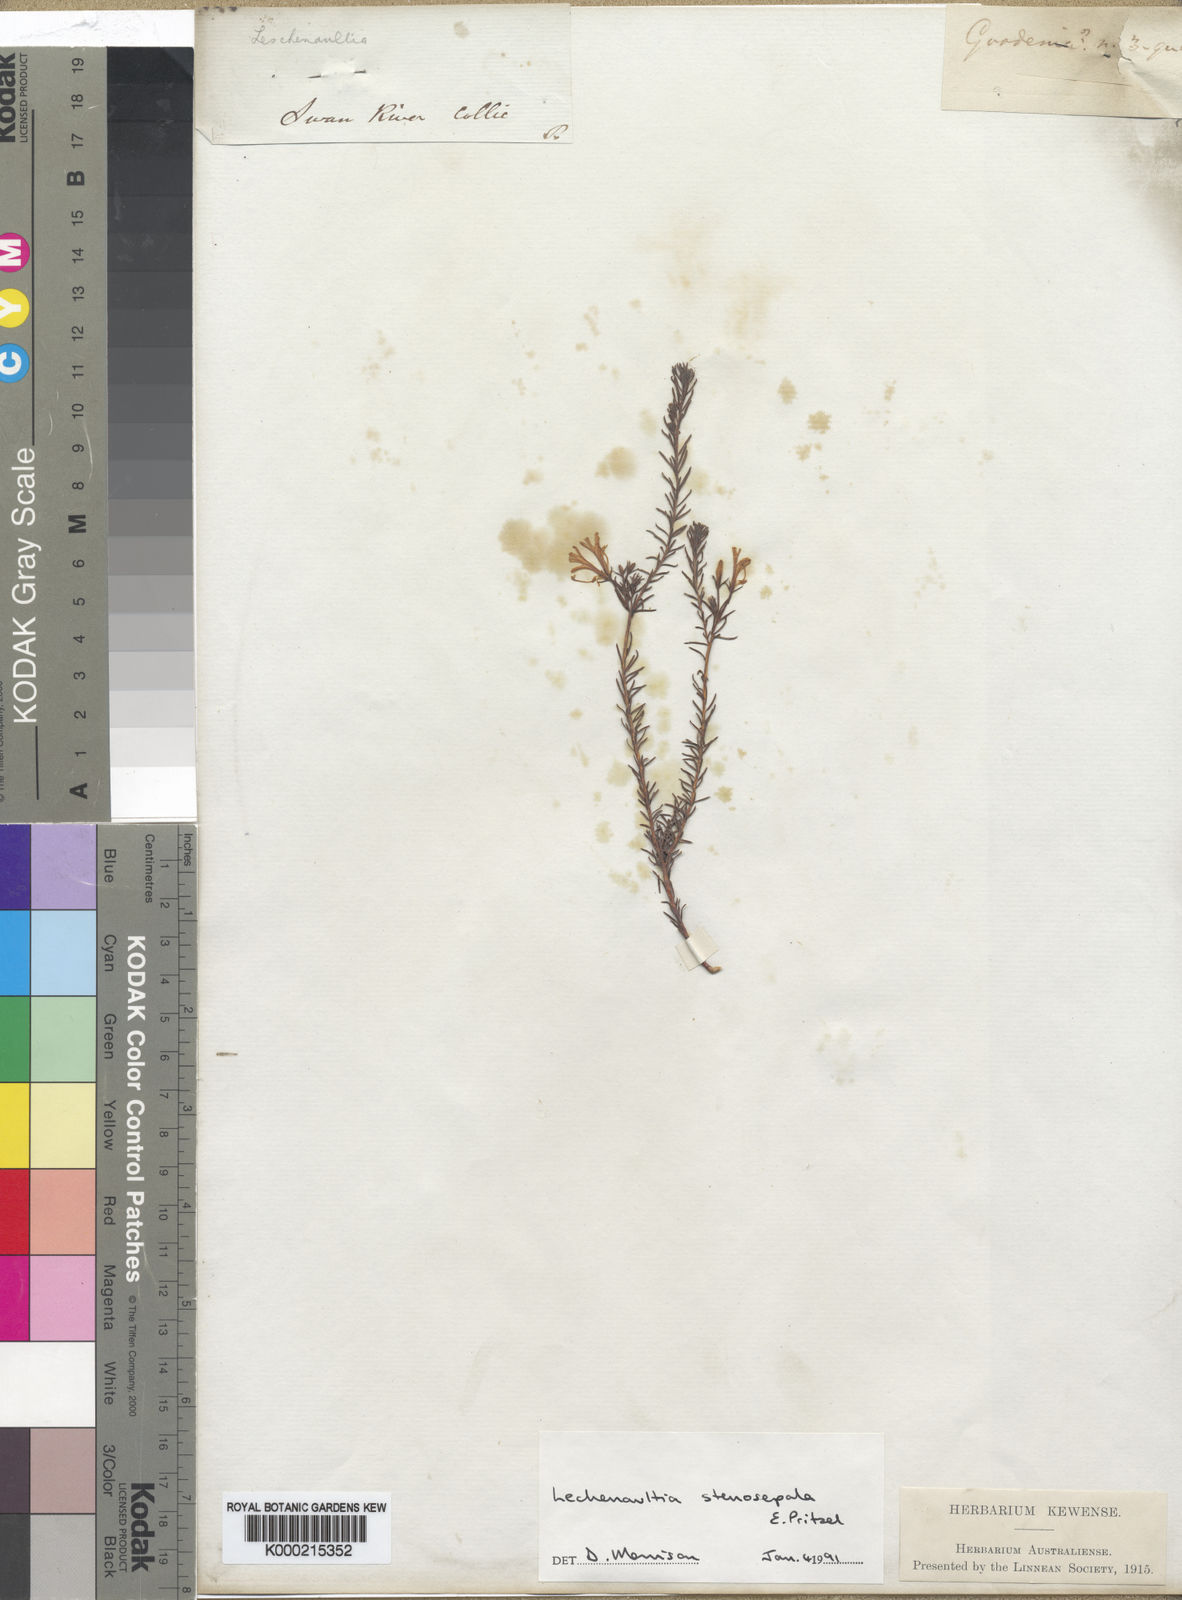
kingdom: Plantae
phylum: Tracheophyta
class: Magnoliopsida
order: Asterales
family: Goodeniaceae
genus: Leschenaultia
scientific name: Leschenaultia stenosepala
